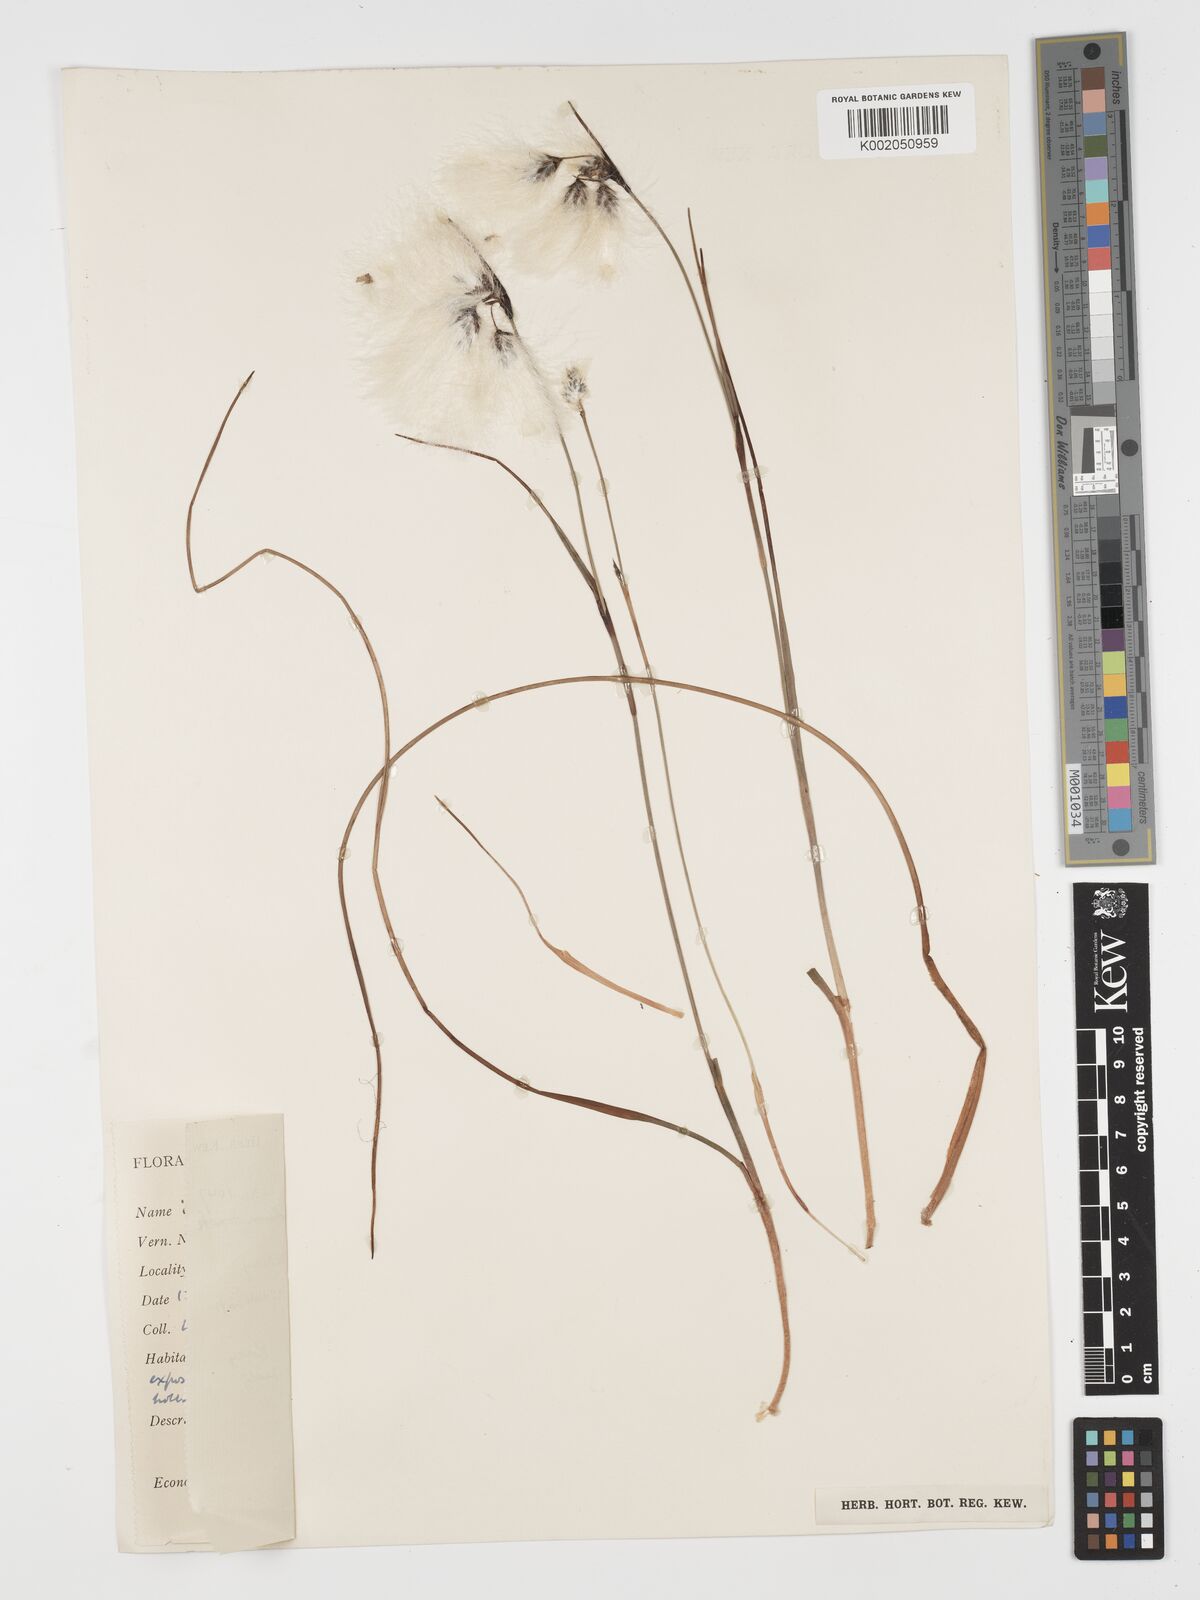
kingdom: Plantae
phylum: Tracheophyta
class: Liliopsida
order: Poales
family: Cyperaceae
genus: Eriophorum
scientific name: Eriophorum angustifolium
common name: Common cottongrass
